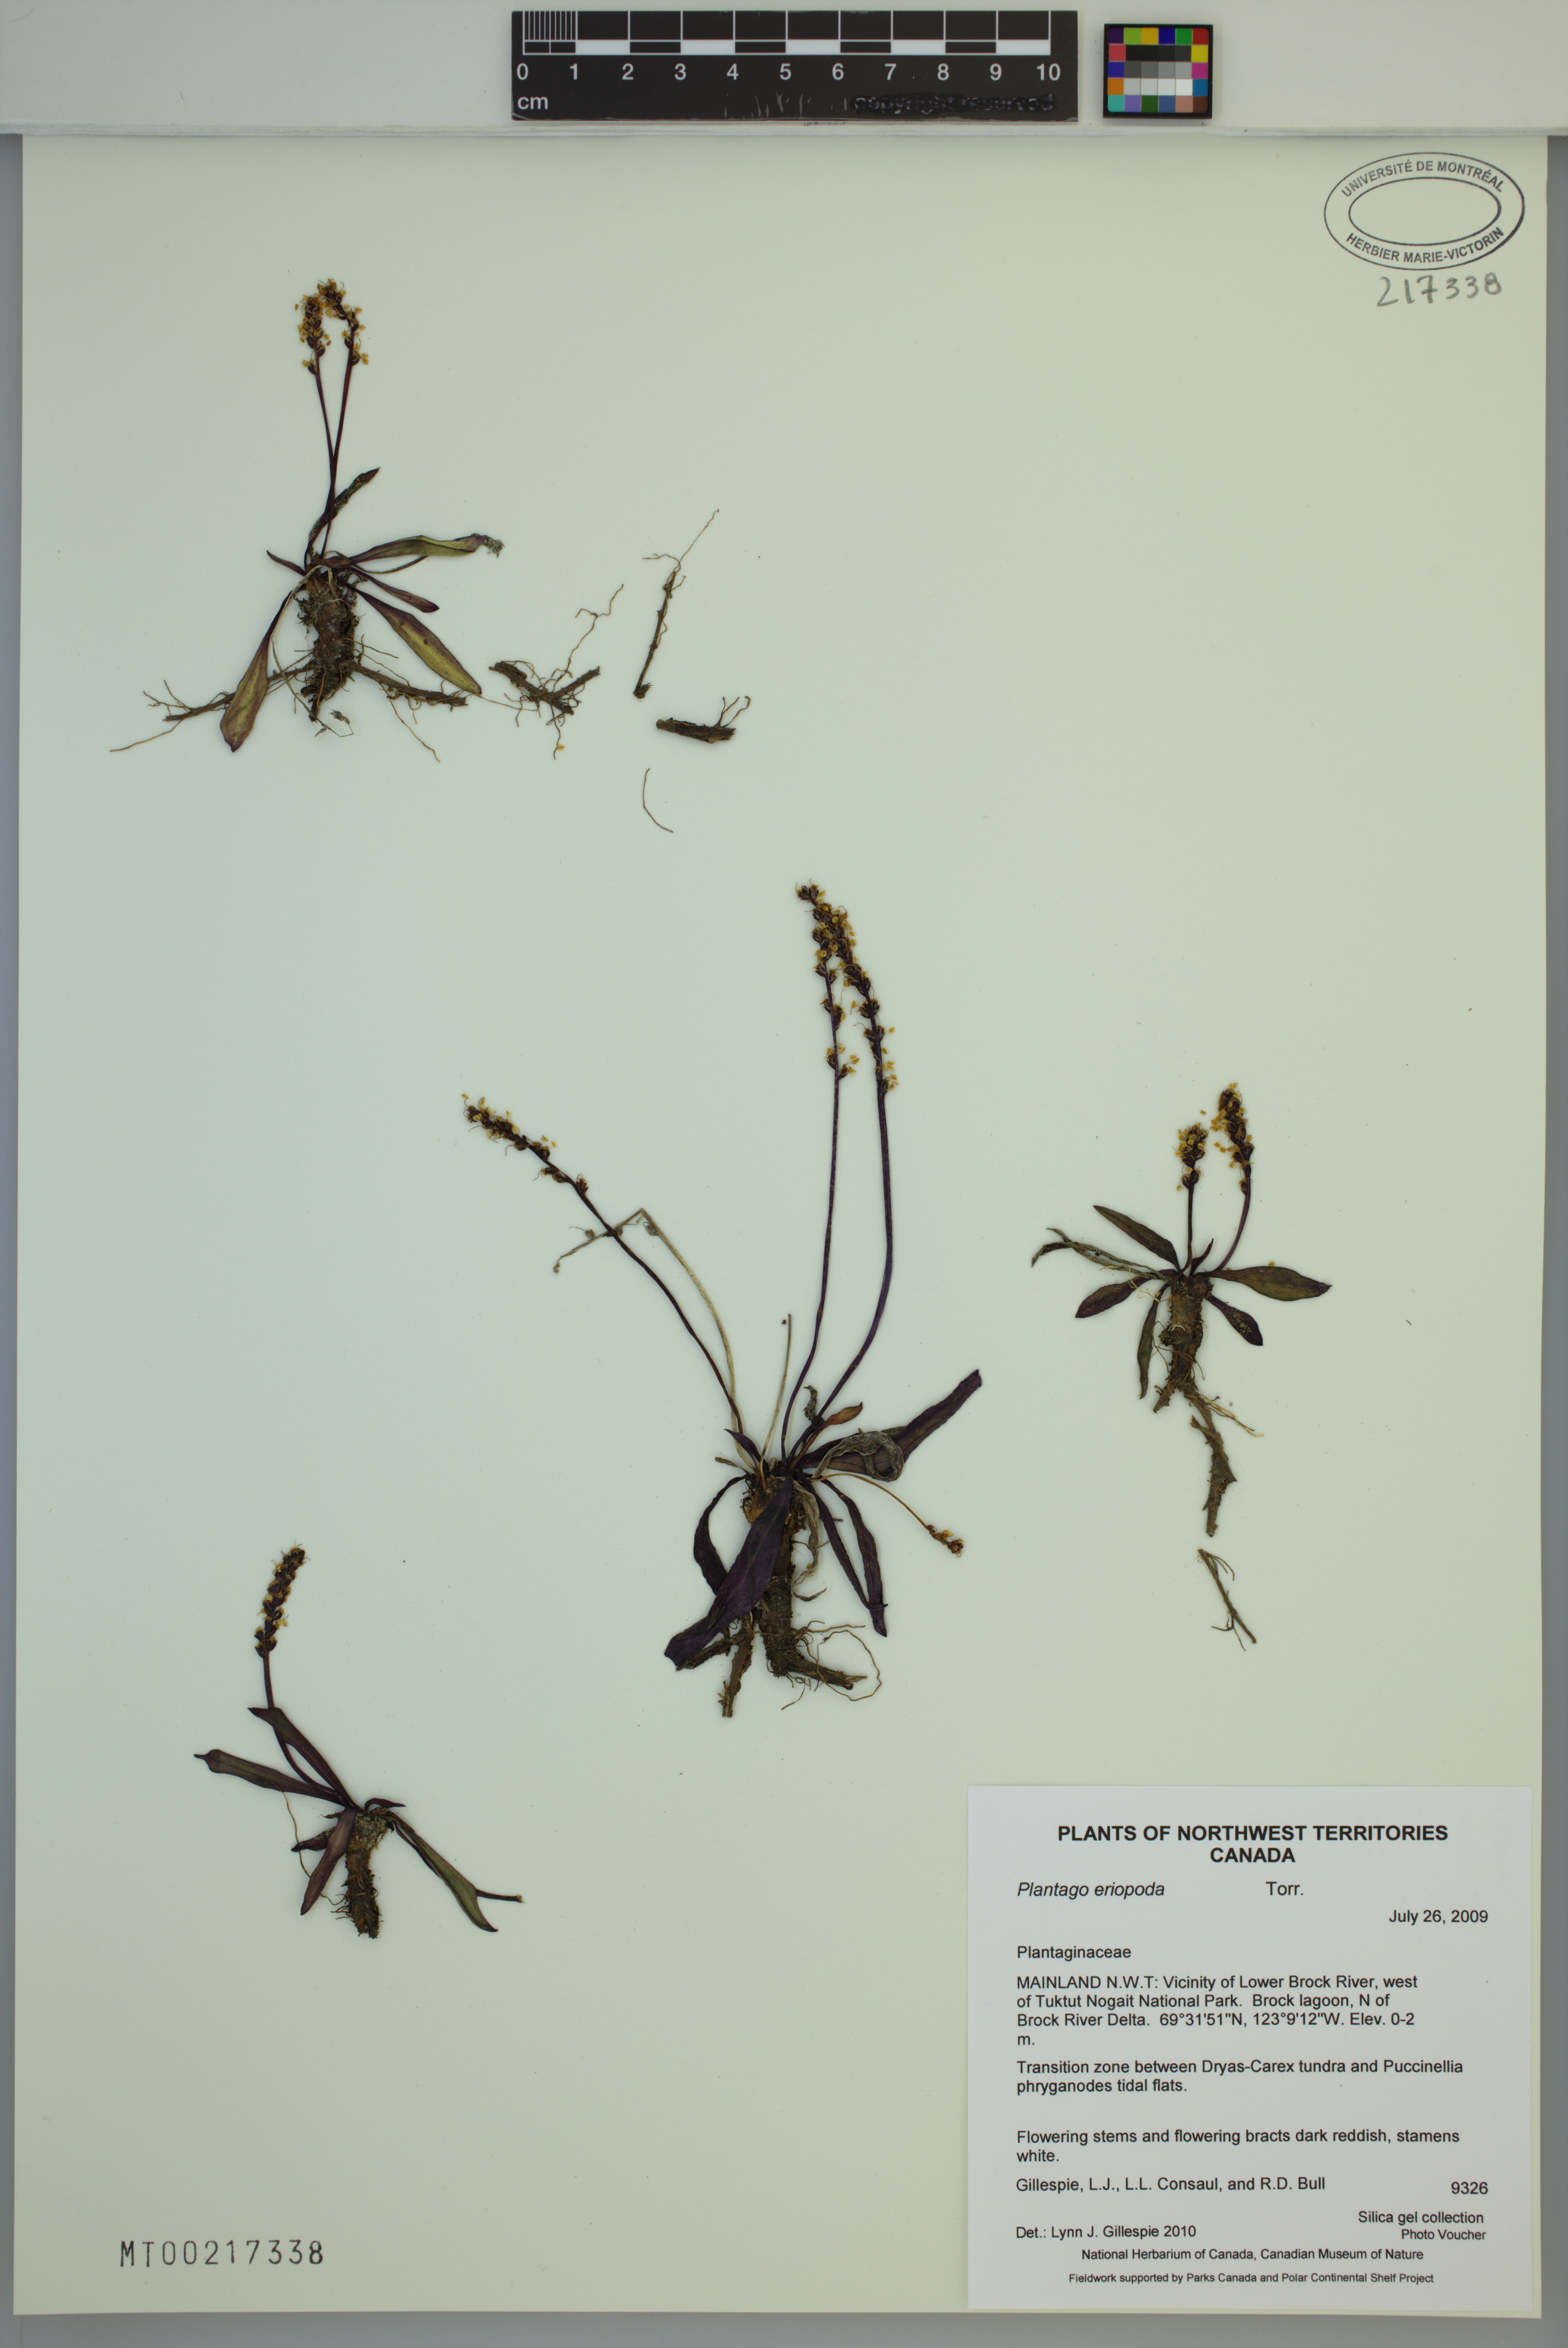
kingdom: Plantae
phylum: Tracheophyta
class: Magnoliopsida
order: Lamiales
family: Plantaginaceae
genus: Plantago
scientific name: Plantago eriopoda
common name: Alkali plantain
